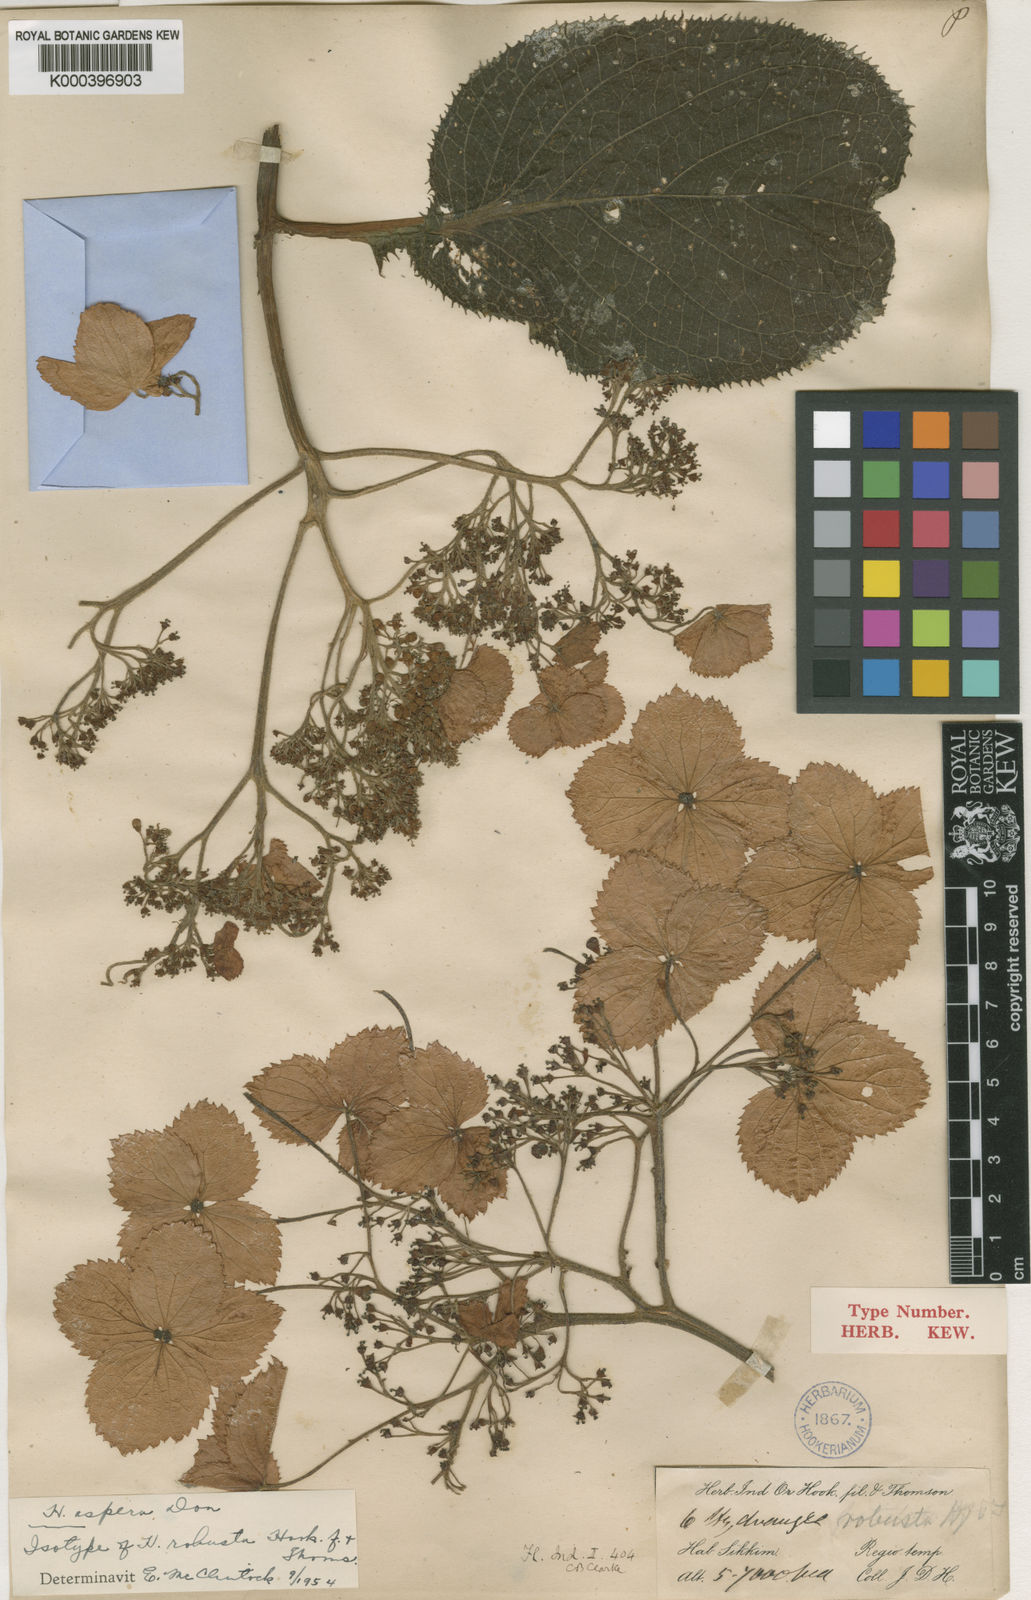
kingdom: Plantae
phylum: Tracheophyta
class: Magnoliopsida
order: Cornales
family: Hydrangeaceae
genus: Hydrangea
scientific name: Hydrangea aspera
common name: Rough-leaf hydrangea
